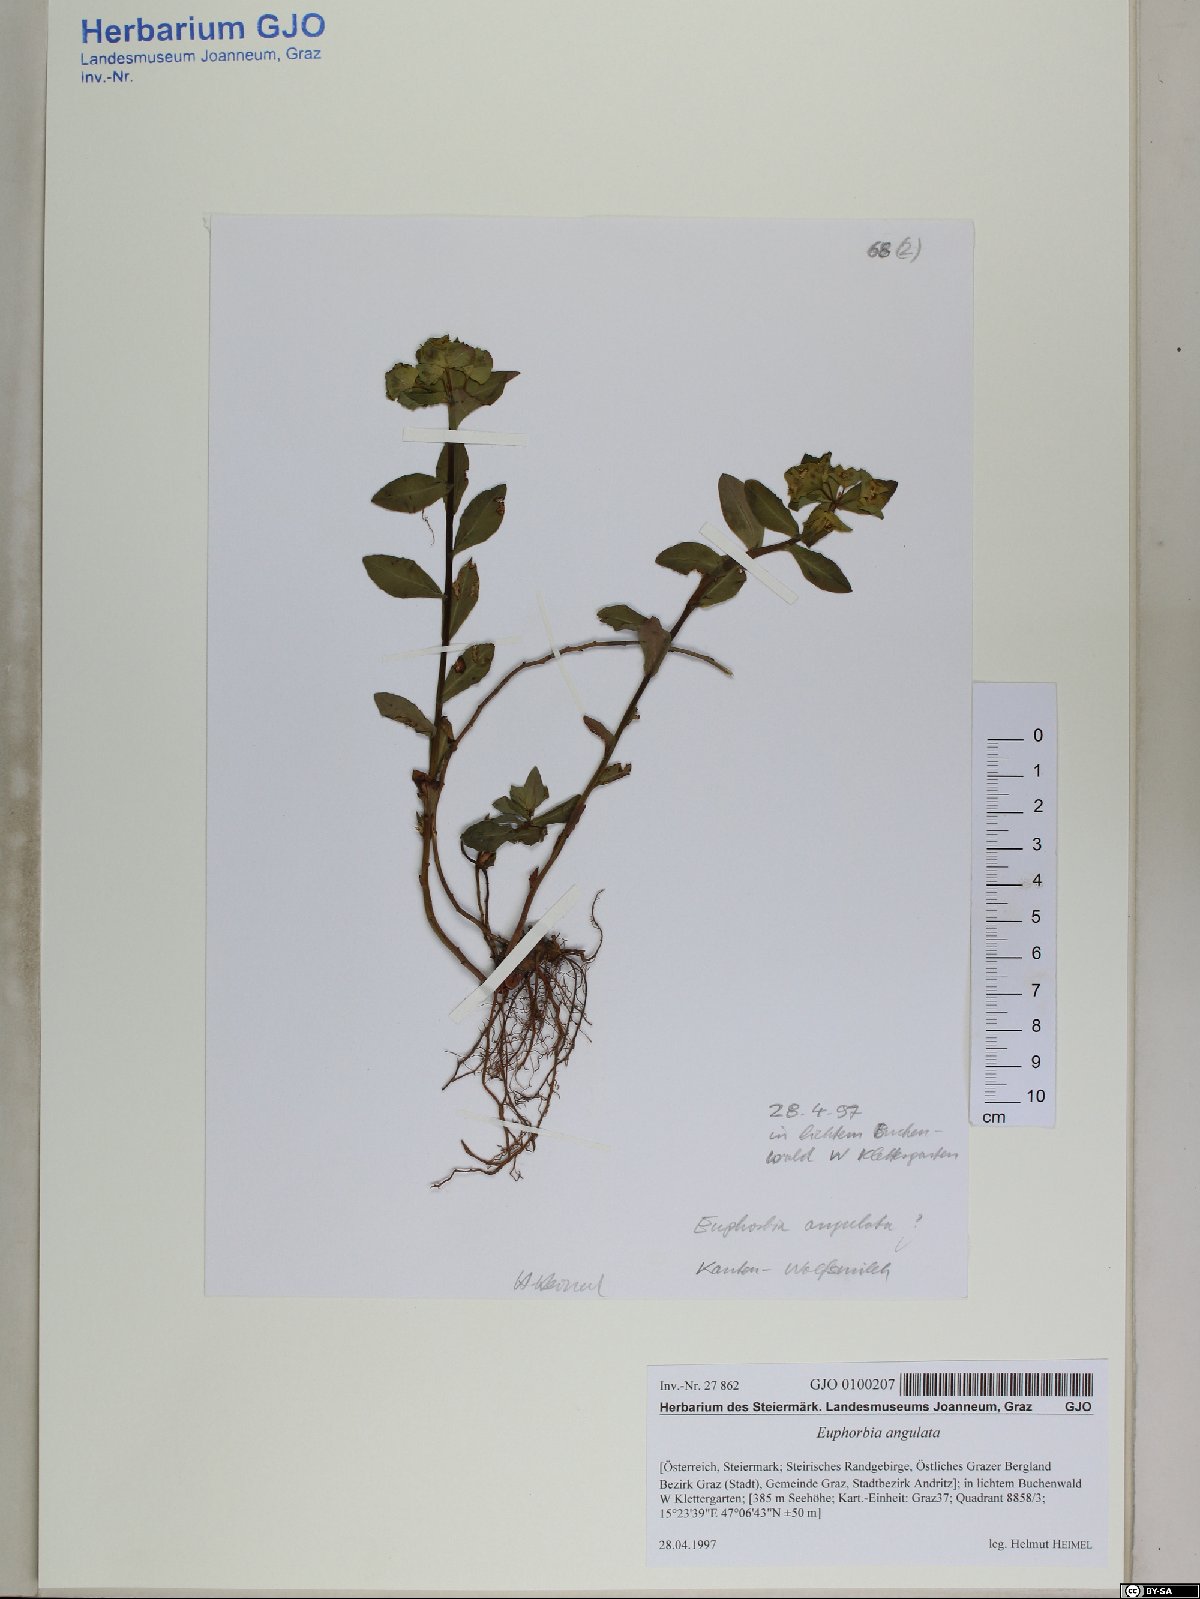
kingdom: Plantae
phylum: Tracheophyta
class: Magnoliopsida
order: Malpighiales
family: Euphorbiaceae
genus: Euphorbia
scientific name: Euphorbia angulata
